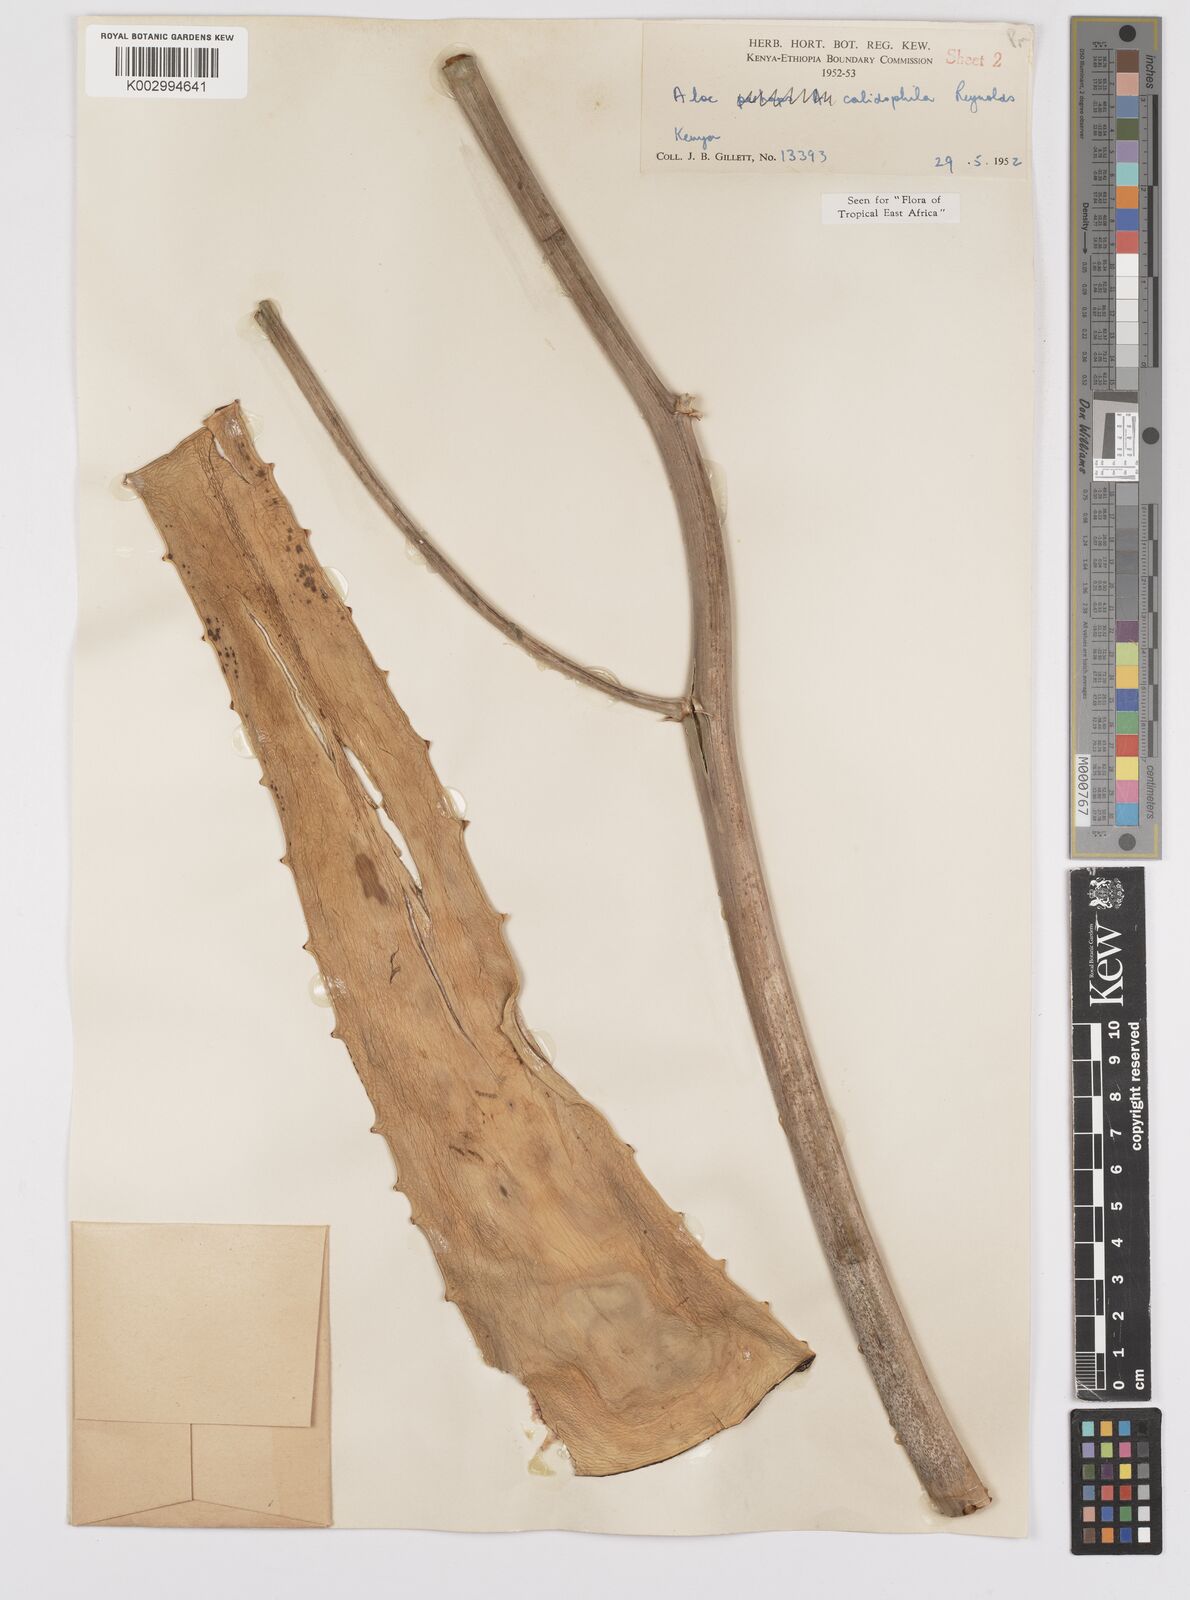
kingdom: Plantae
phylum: Tracheophyta
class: Liliopsida
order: Asparagales
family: Asphodelaceae
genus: Aloe
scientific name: Aloe calidophila
